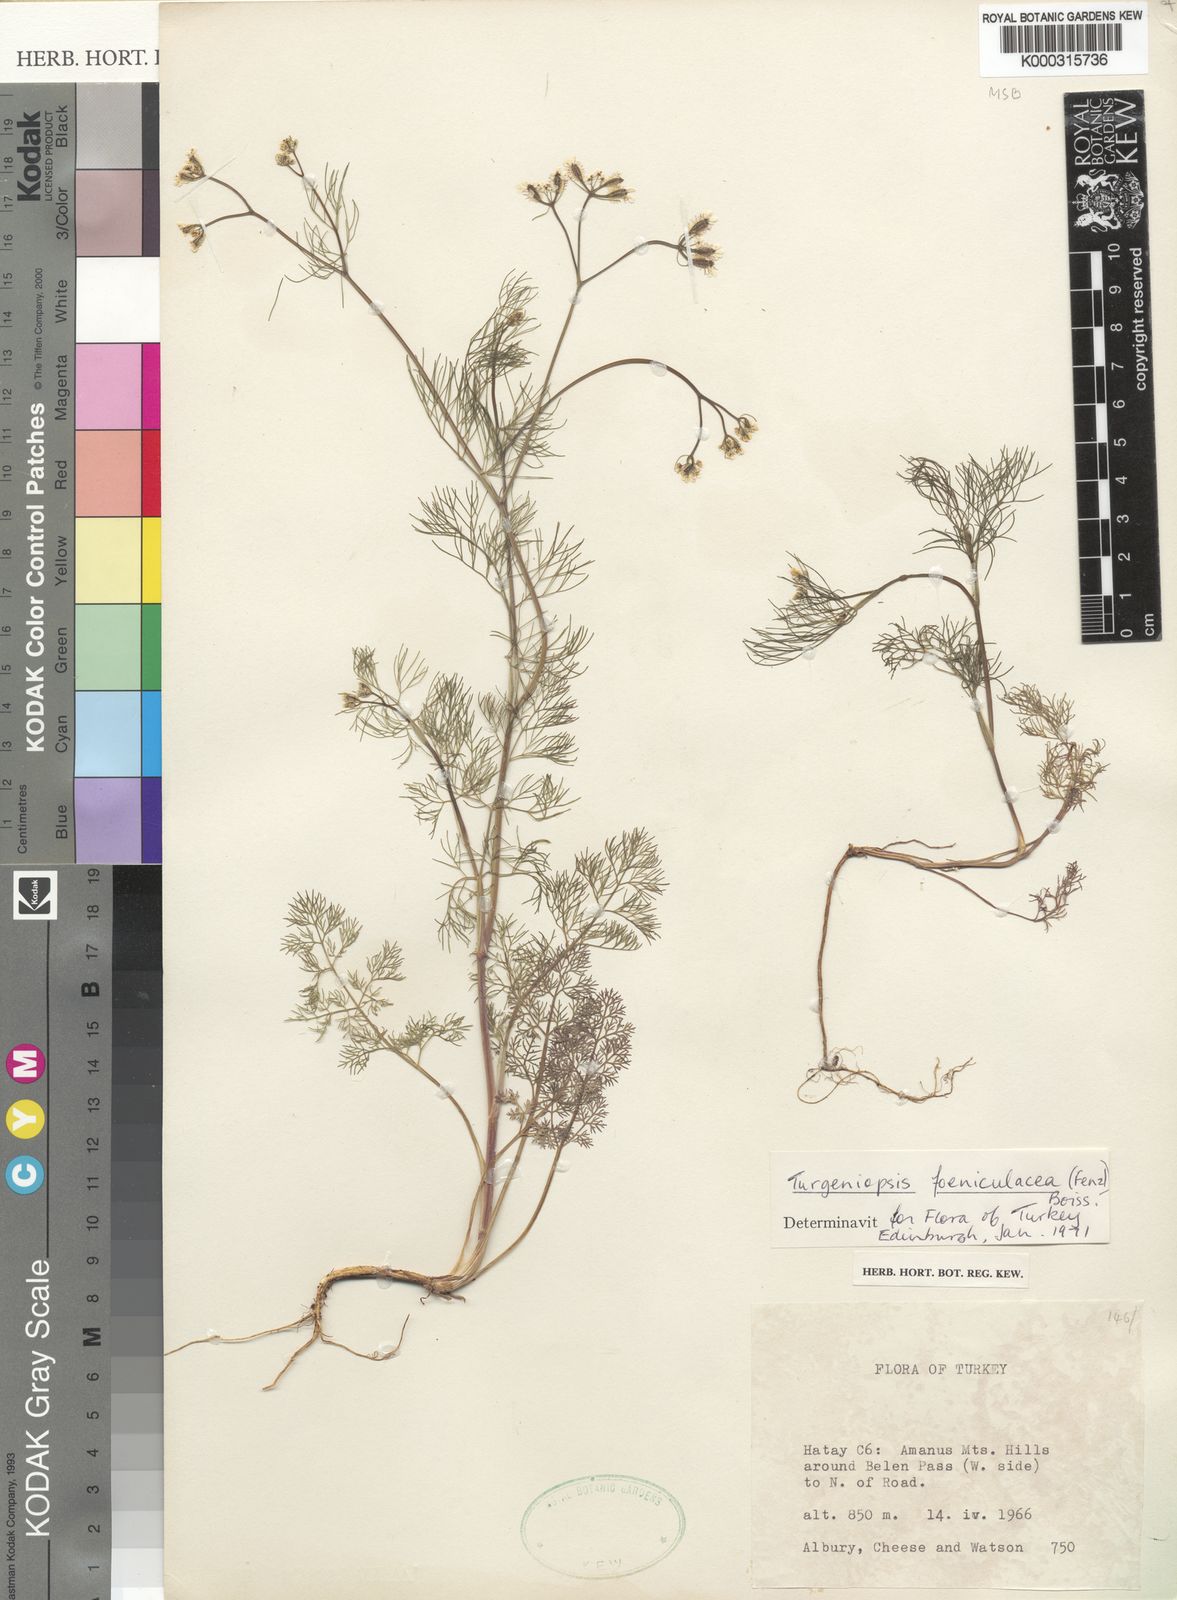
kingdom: Plantae
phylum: Tracheophyta
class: Magnoliopsida
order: Apiales
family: Apiaceae
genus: Turgeniopsis
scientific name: Turgeniopsis foeniculacea
